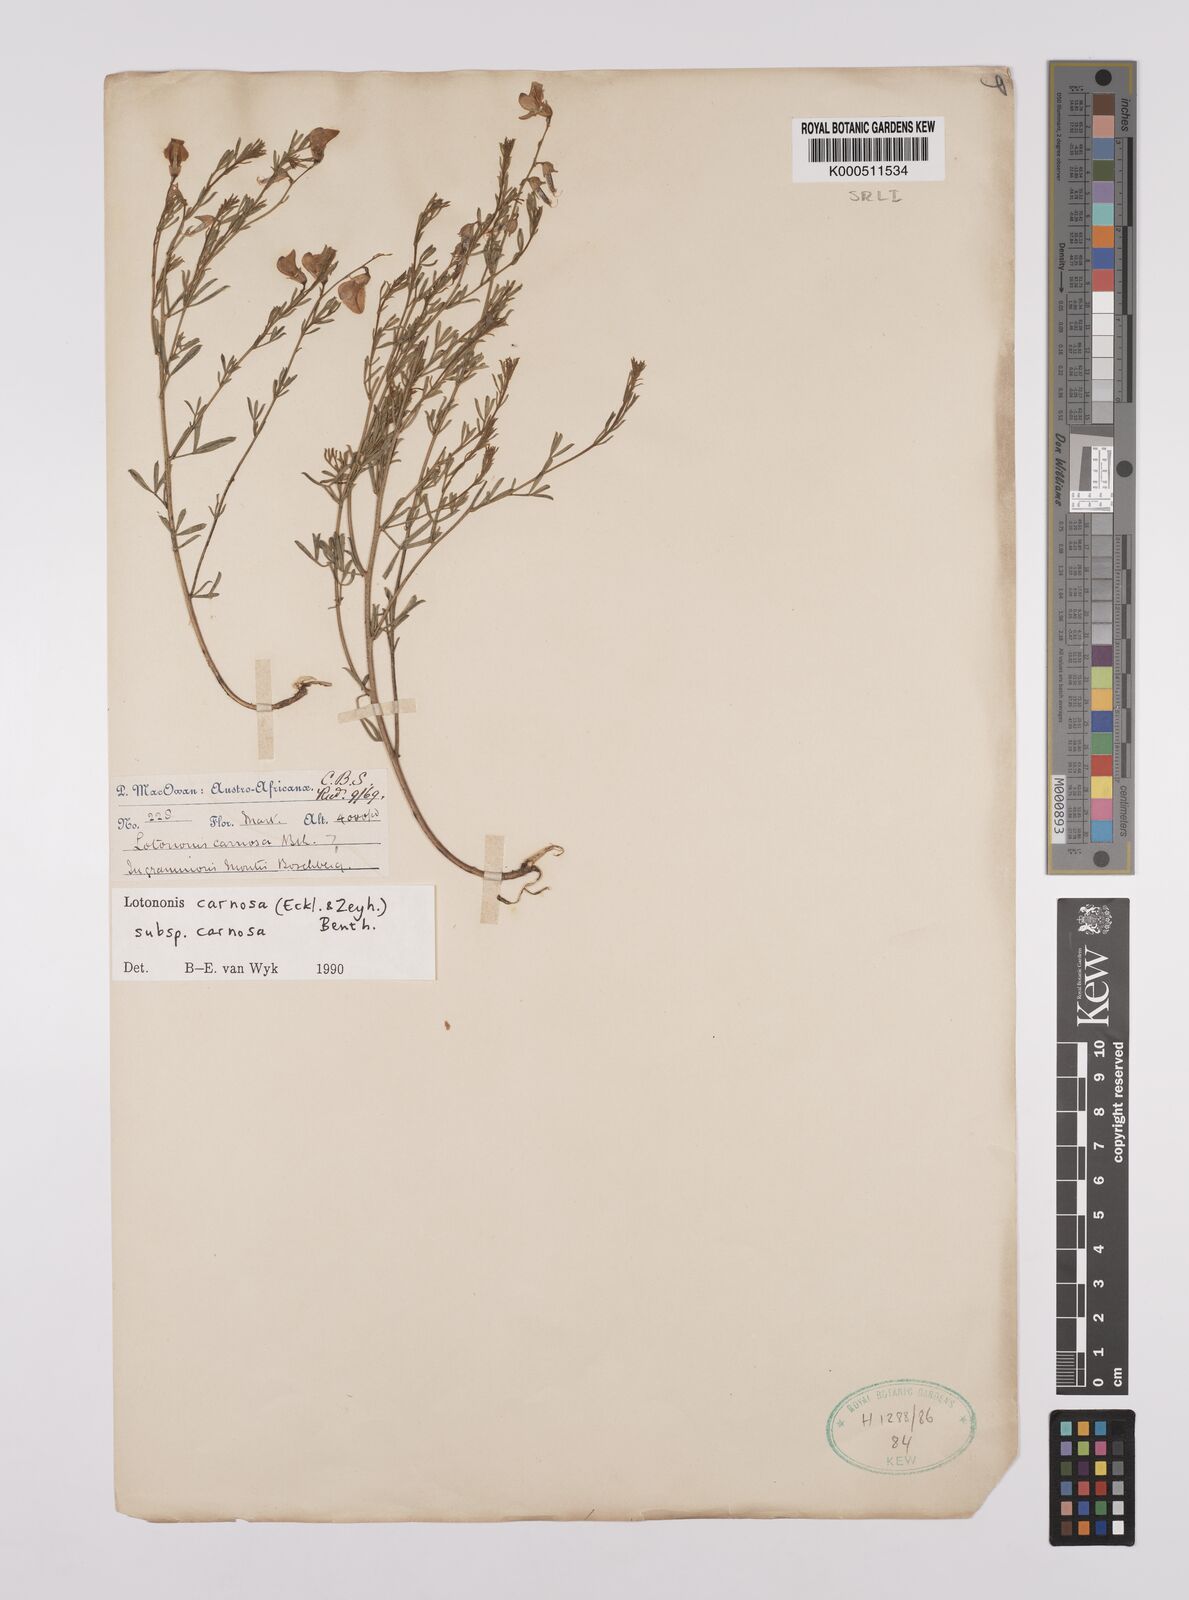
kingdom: Plantae
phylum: Tracheophyta
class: Magnoliopsida
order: Fabales
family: Fabaceae
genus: Lotononis
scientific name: Lotononis carnosa
